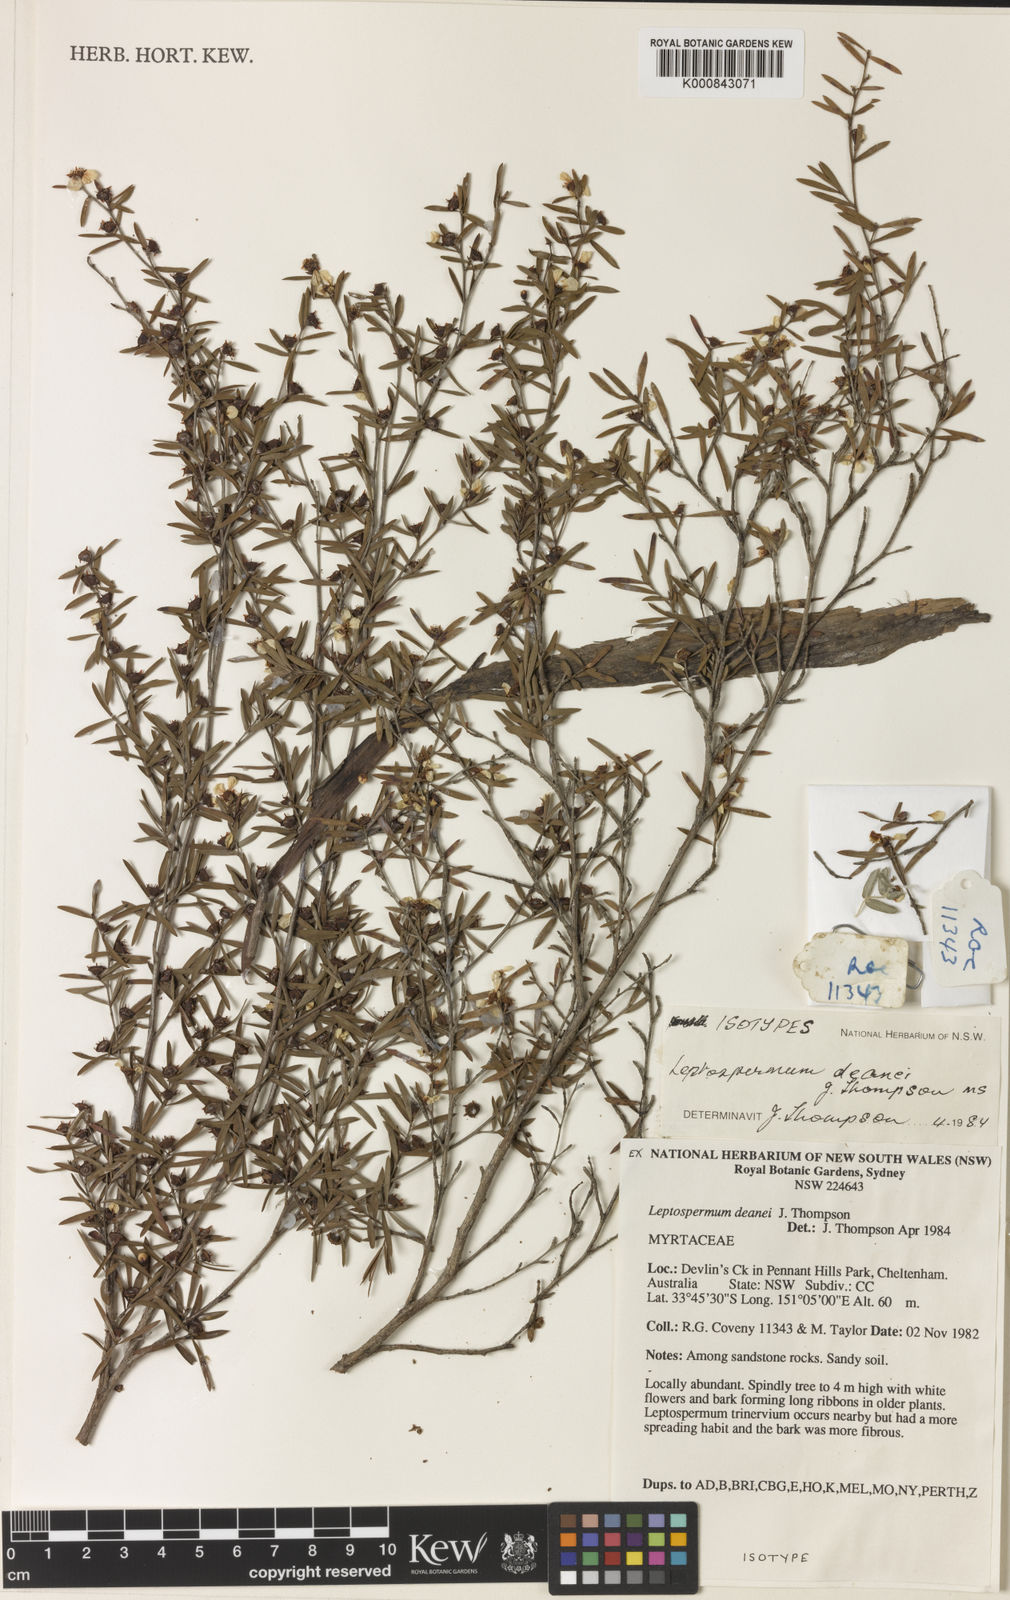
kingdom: Plantae
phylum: Tracheophyta
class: Magnoliopsida
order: Myrtales
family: Myrtaceae
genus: Leptospermum
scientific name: Leptospermum deanei
